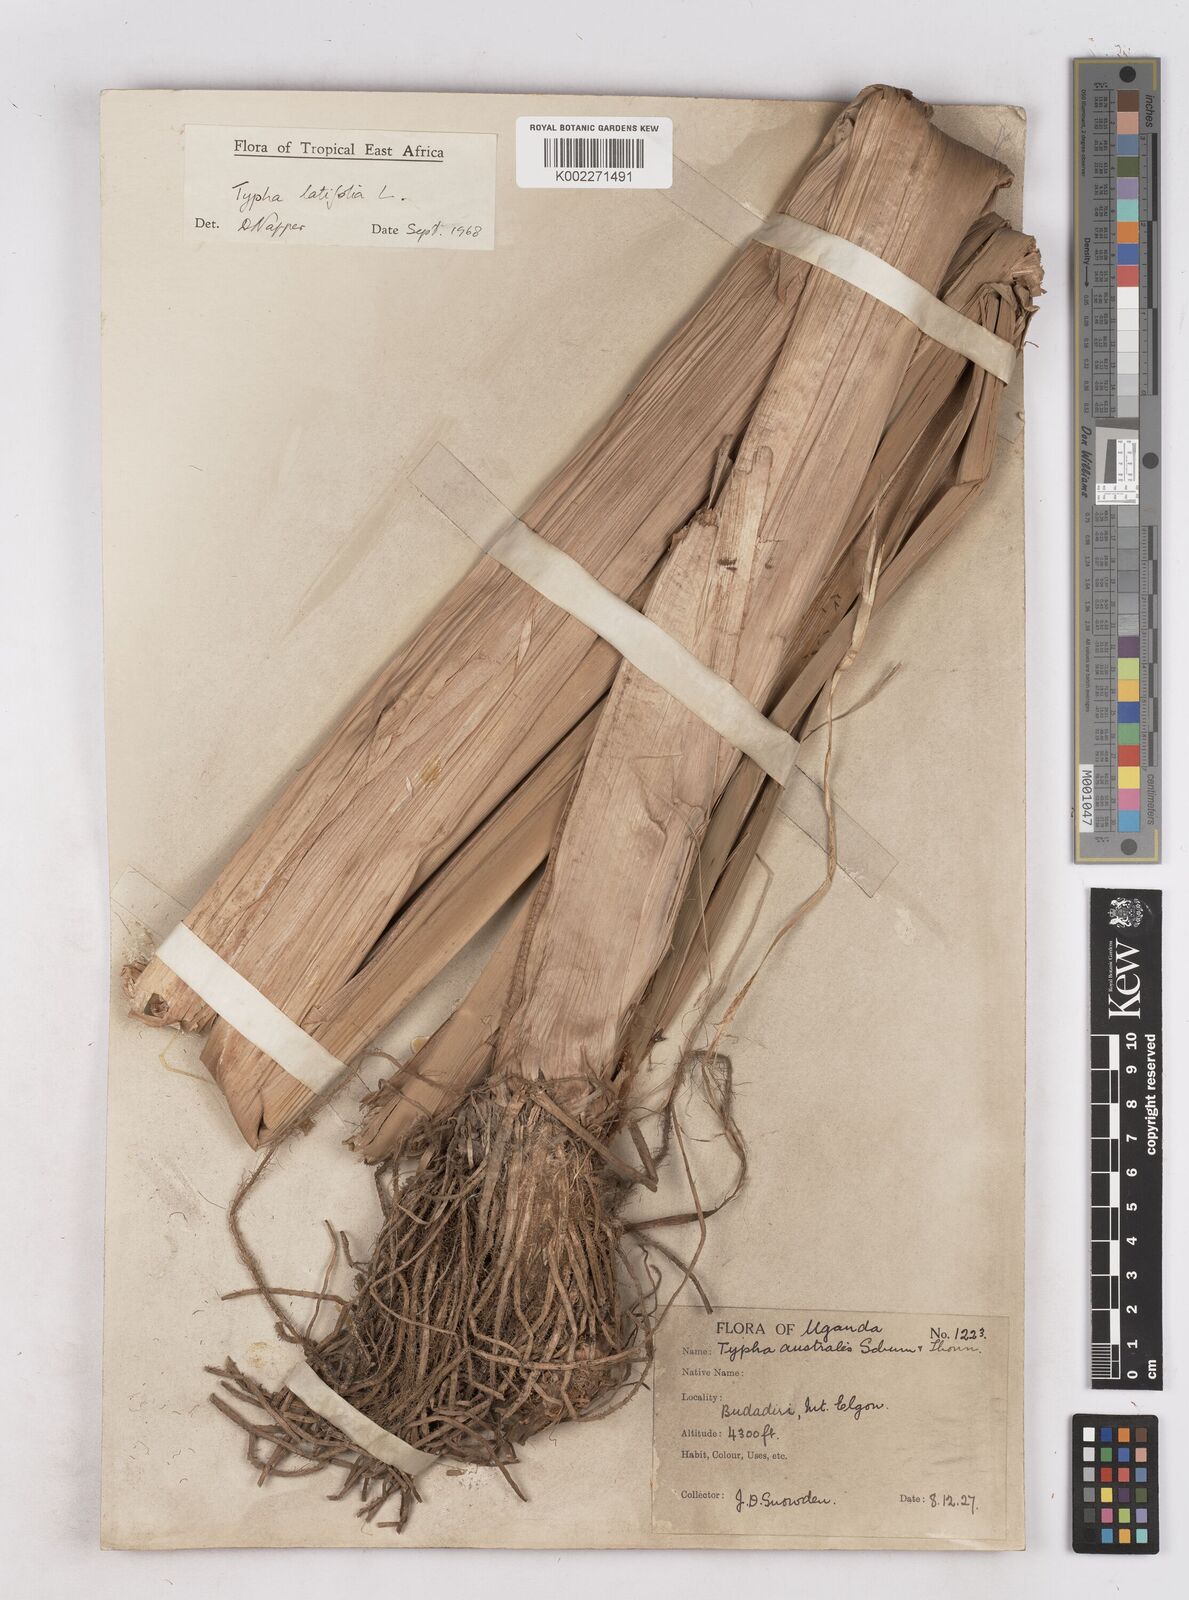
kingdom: Plantae
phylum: Tracheophyta
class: Liliopsida
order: Poales
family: Typhaceae
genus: Typha
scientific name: Typha latifolia
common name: Broadleaf cattail
